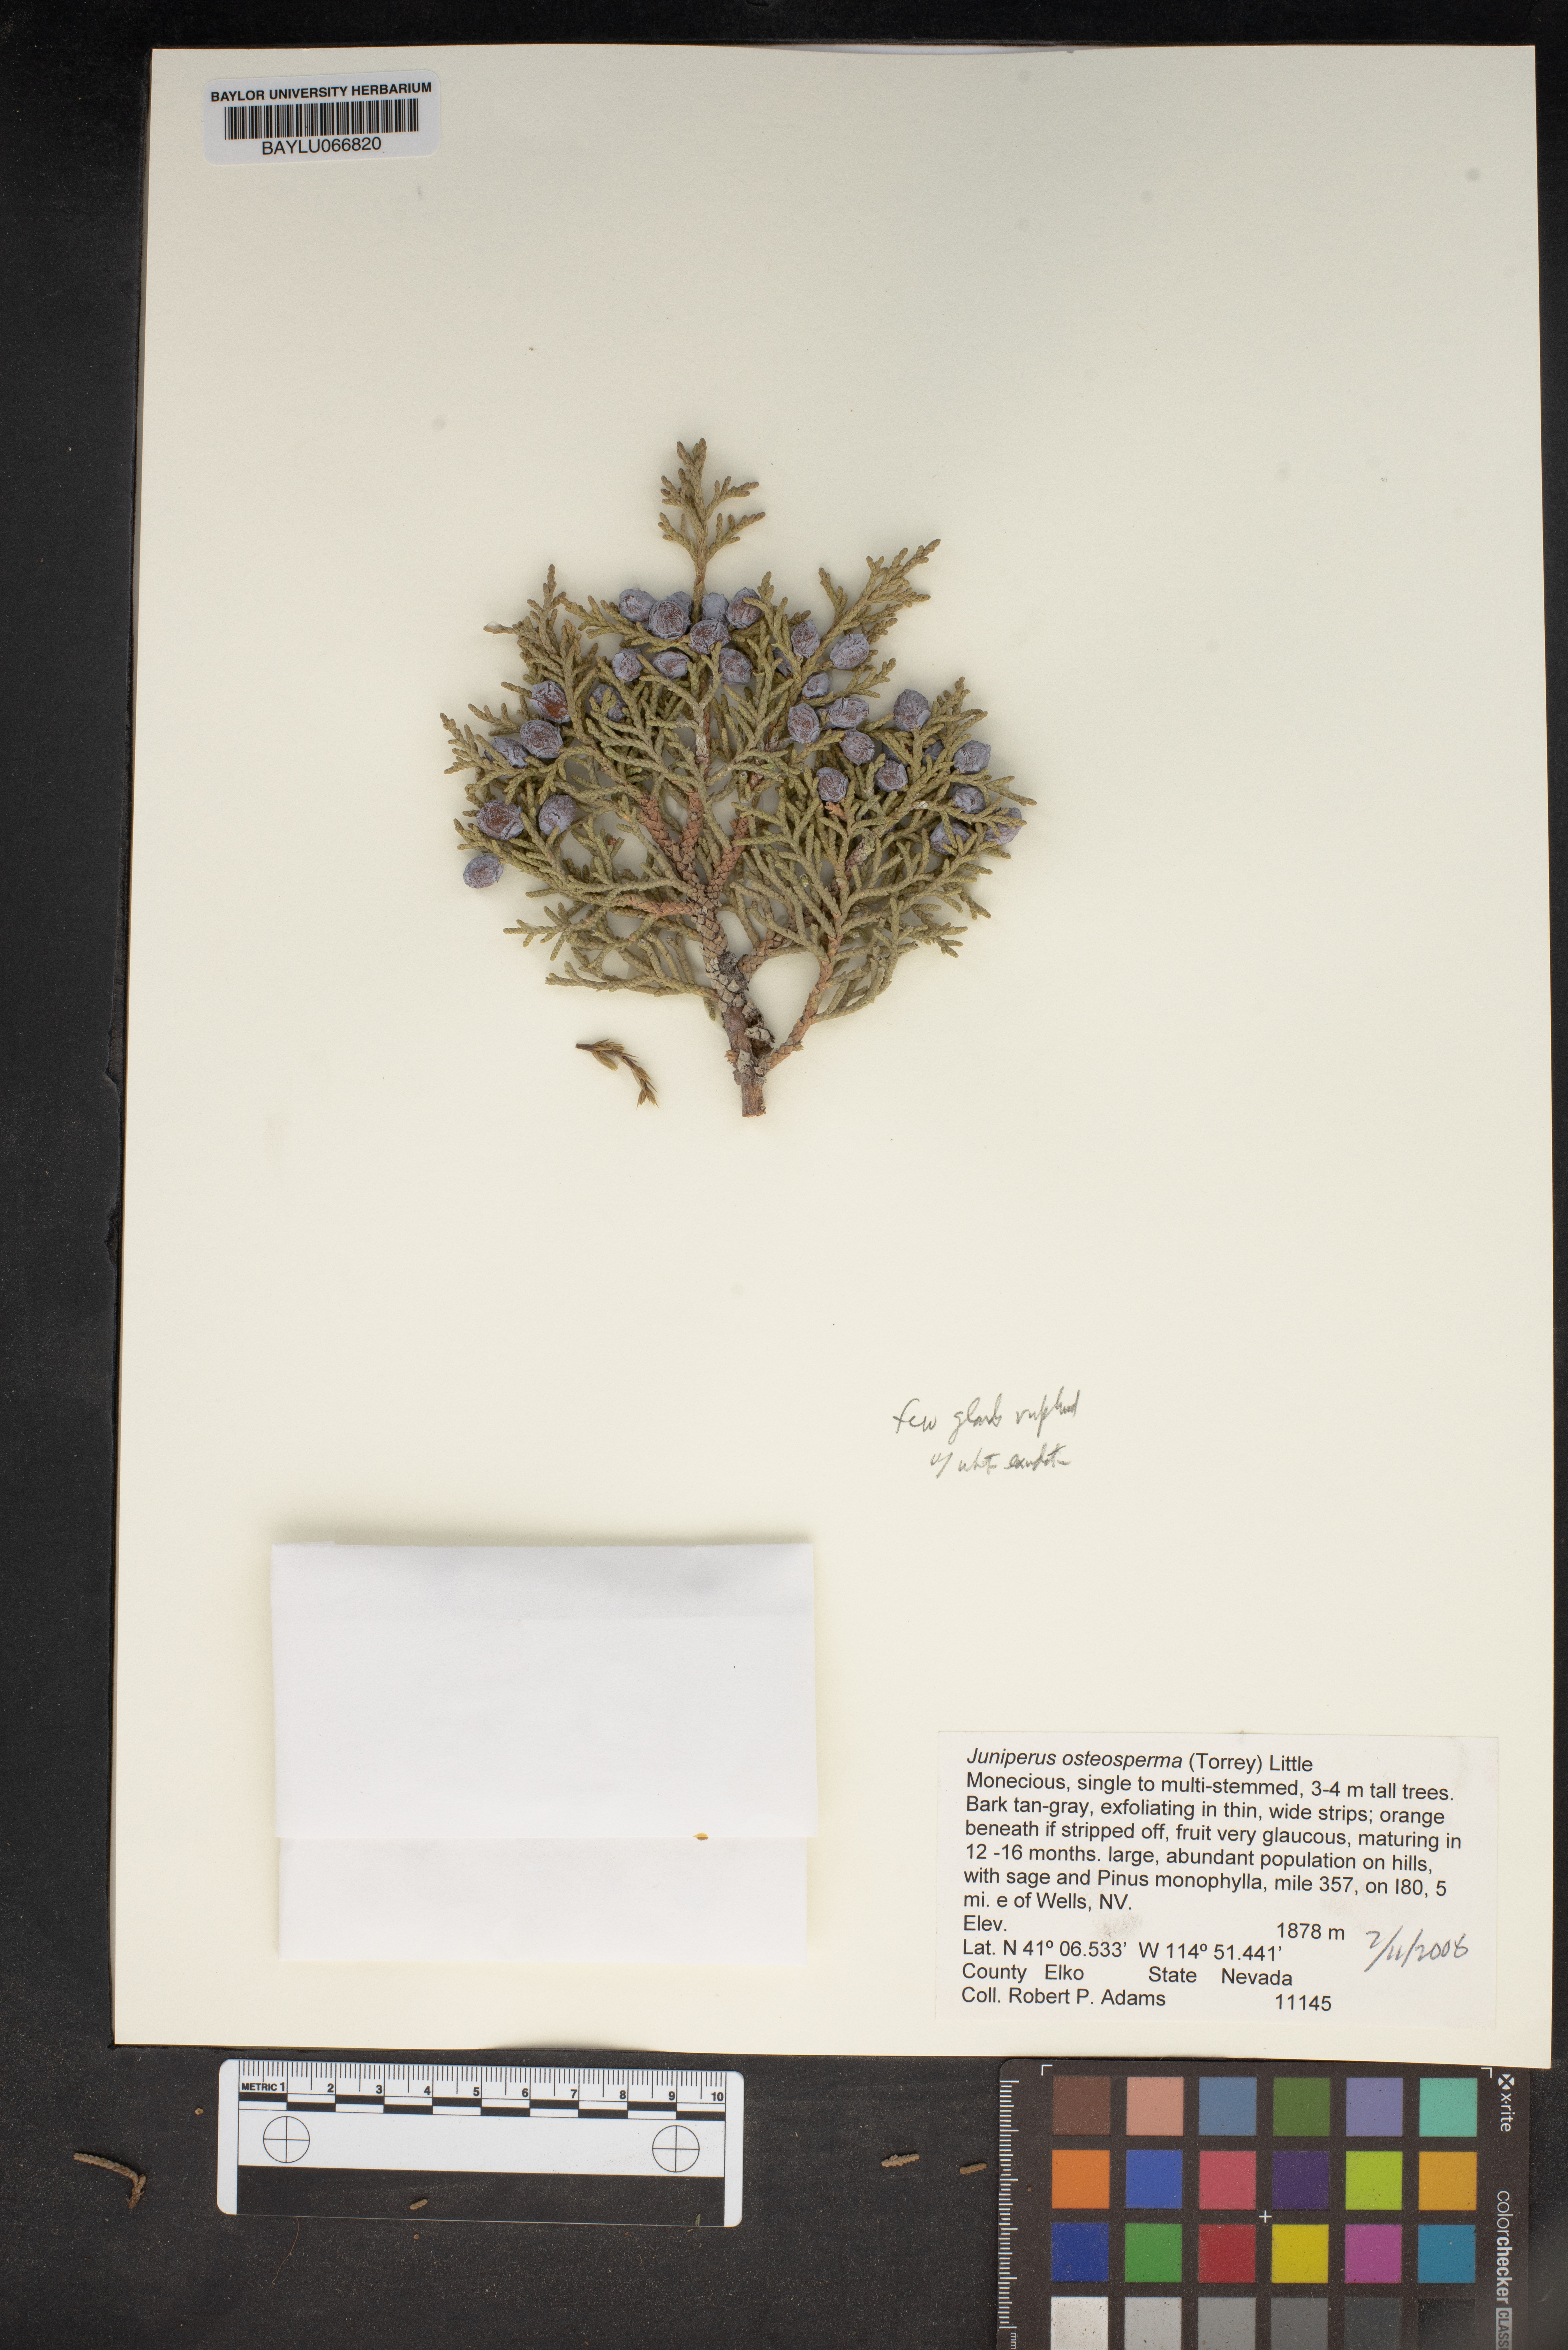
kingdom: Plantae
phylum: Tracheophyta
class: Pinopsida
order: Pinales
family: Cupressaceae
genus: Juniperus
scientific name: Juniperus osteosperma
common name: Utah juniper
